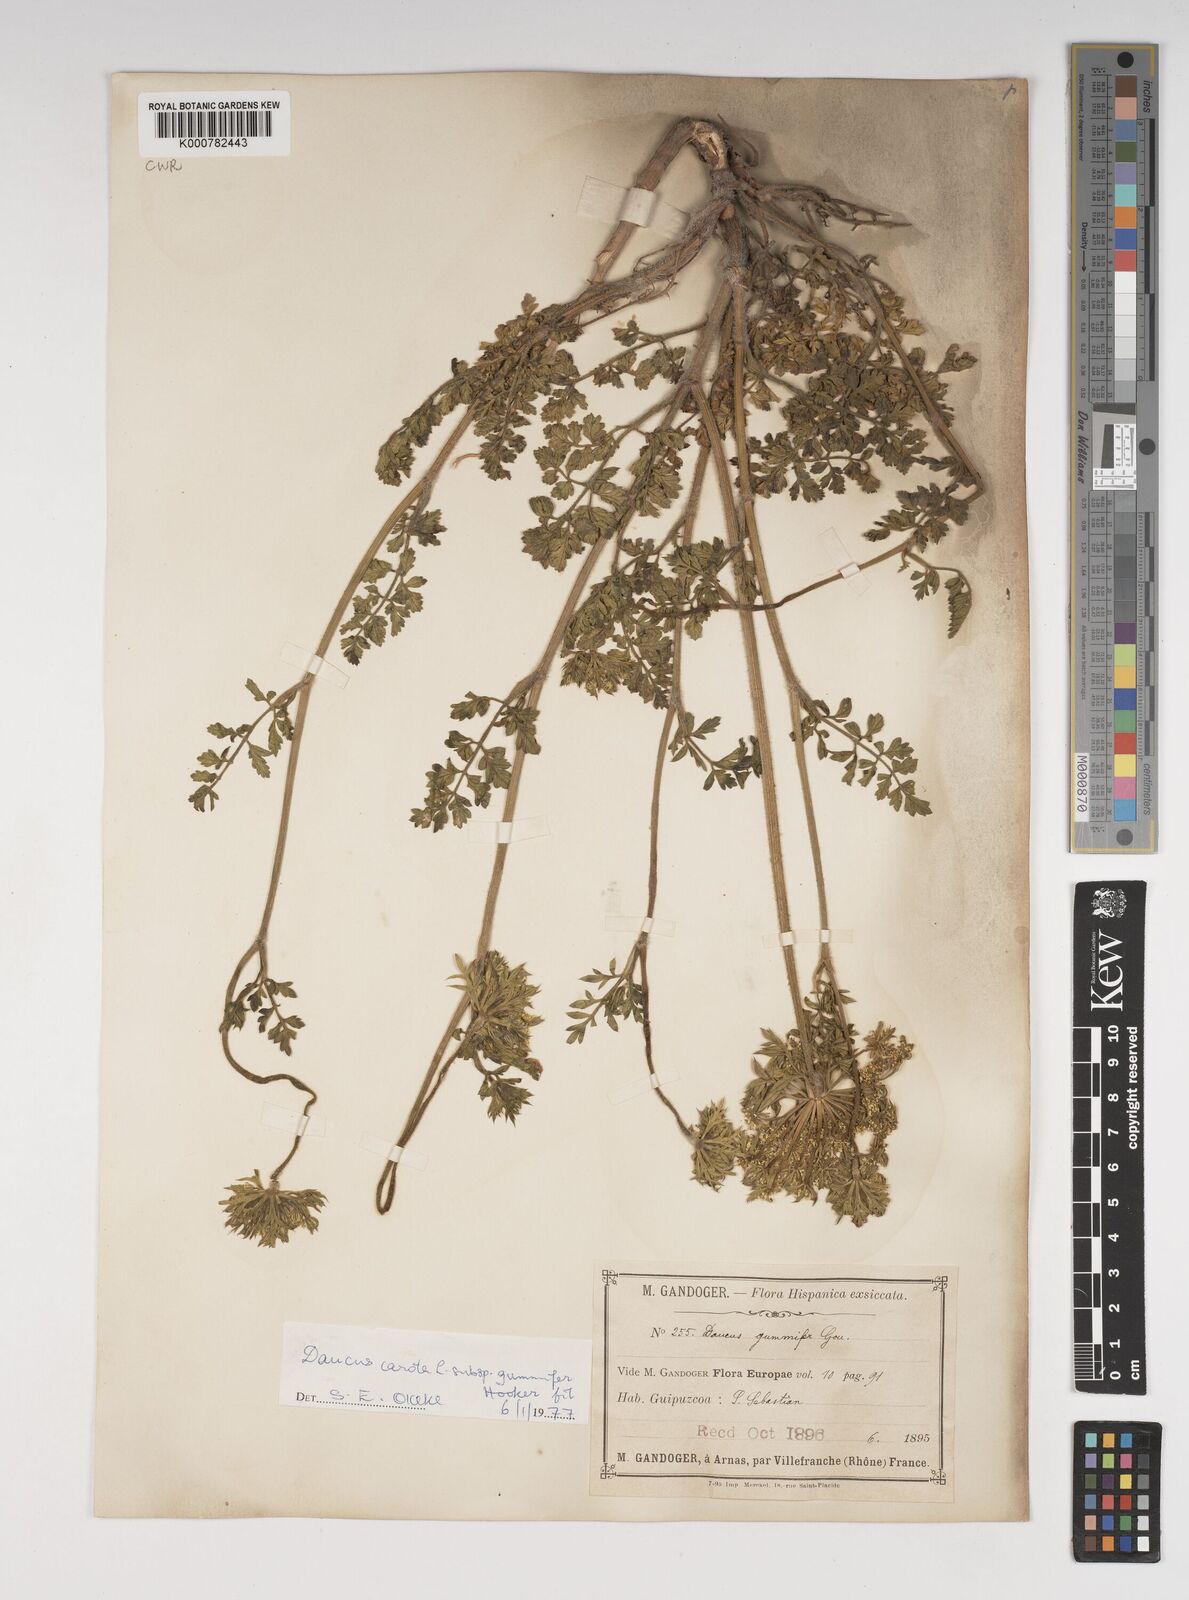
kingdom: Plantae
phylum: Tracheophyta
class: Magnoliopsida
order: Apiales
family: Apiaceae
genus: Daucus
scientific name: Daucus carota
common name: Wild carrot
